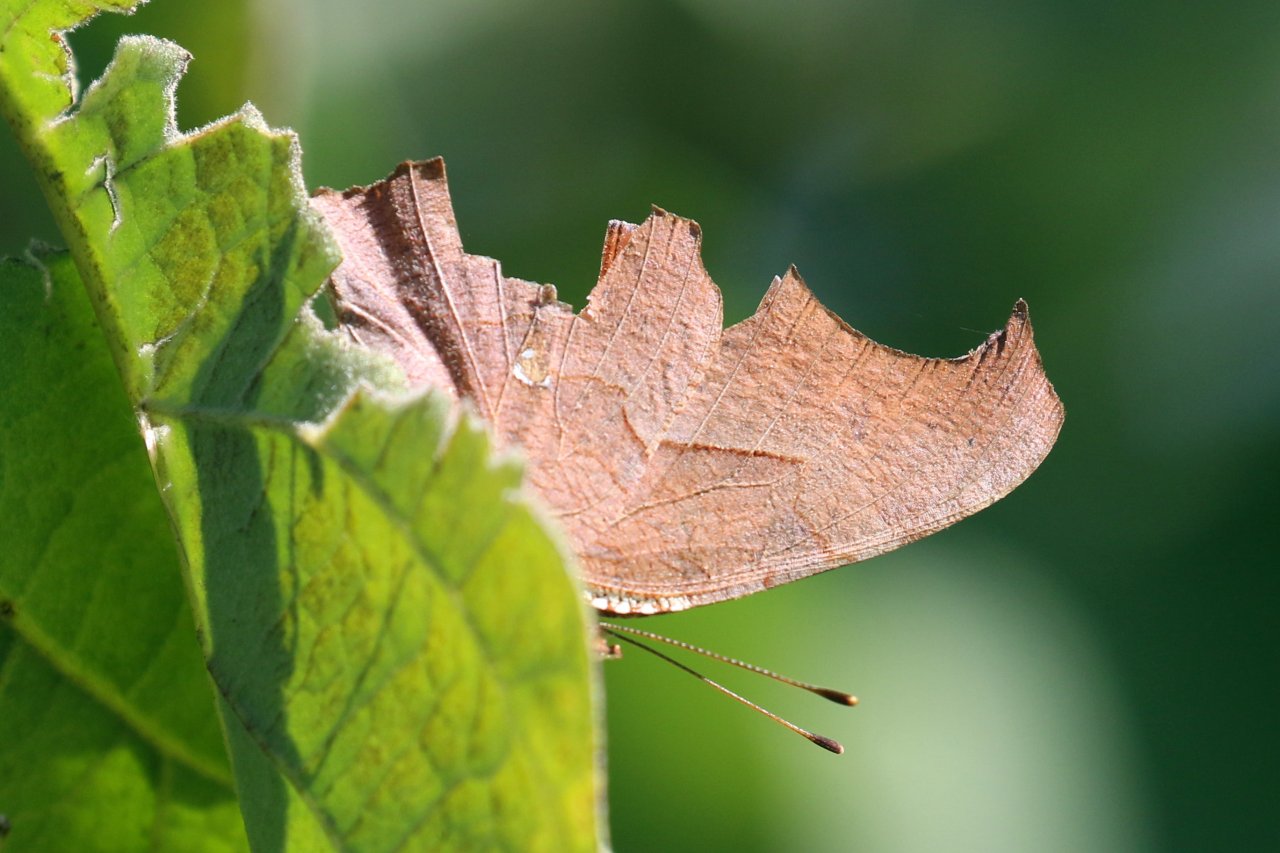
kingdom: Animalia
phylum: Arthropoda
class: Insecta
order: Lepidoptera
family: Nymphalidae
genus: Polygonia
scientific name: Polygonia interrogationis
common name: Question Mark
